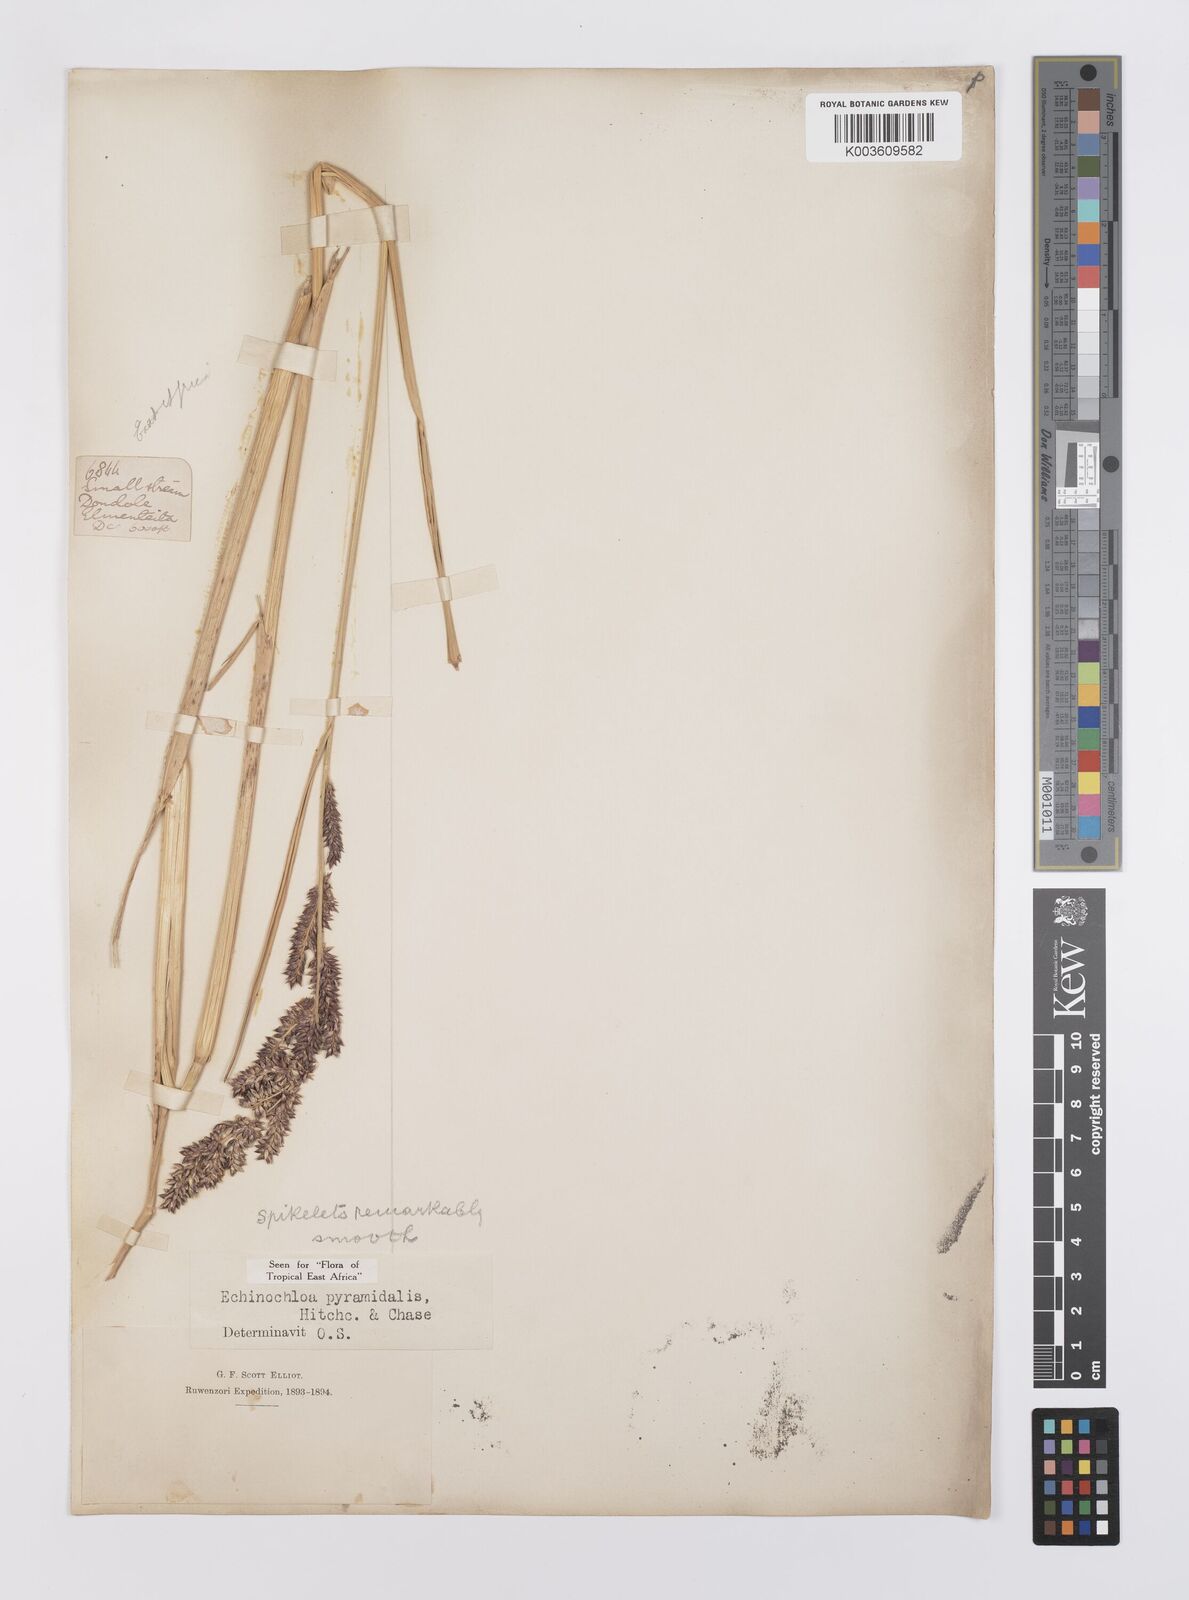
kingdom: Plantae
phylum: Tracheophyta
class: Liliopsida
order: Poales
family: Poaceae
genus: Echinochloa
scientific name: Echinochloa pyramidalis
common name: Antelope grass
